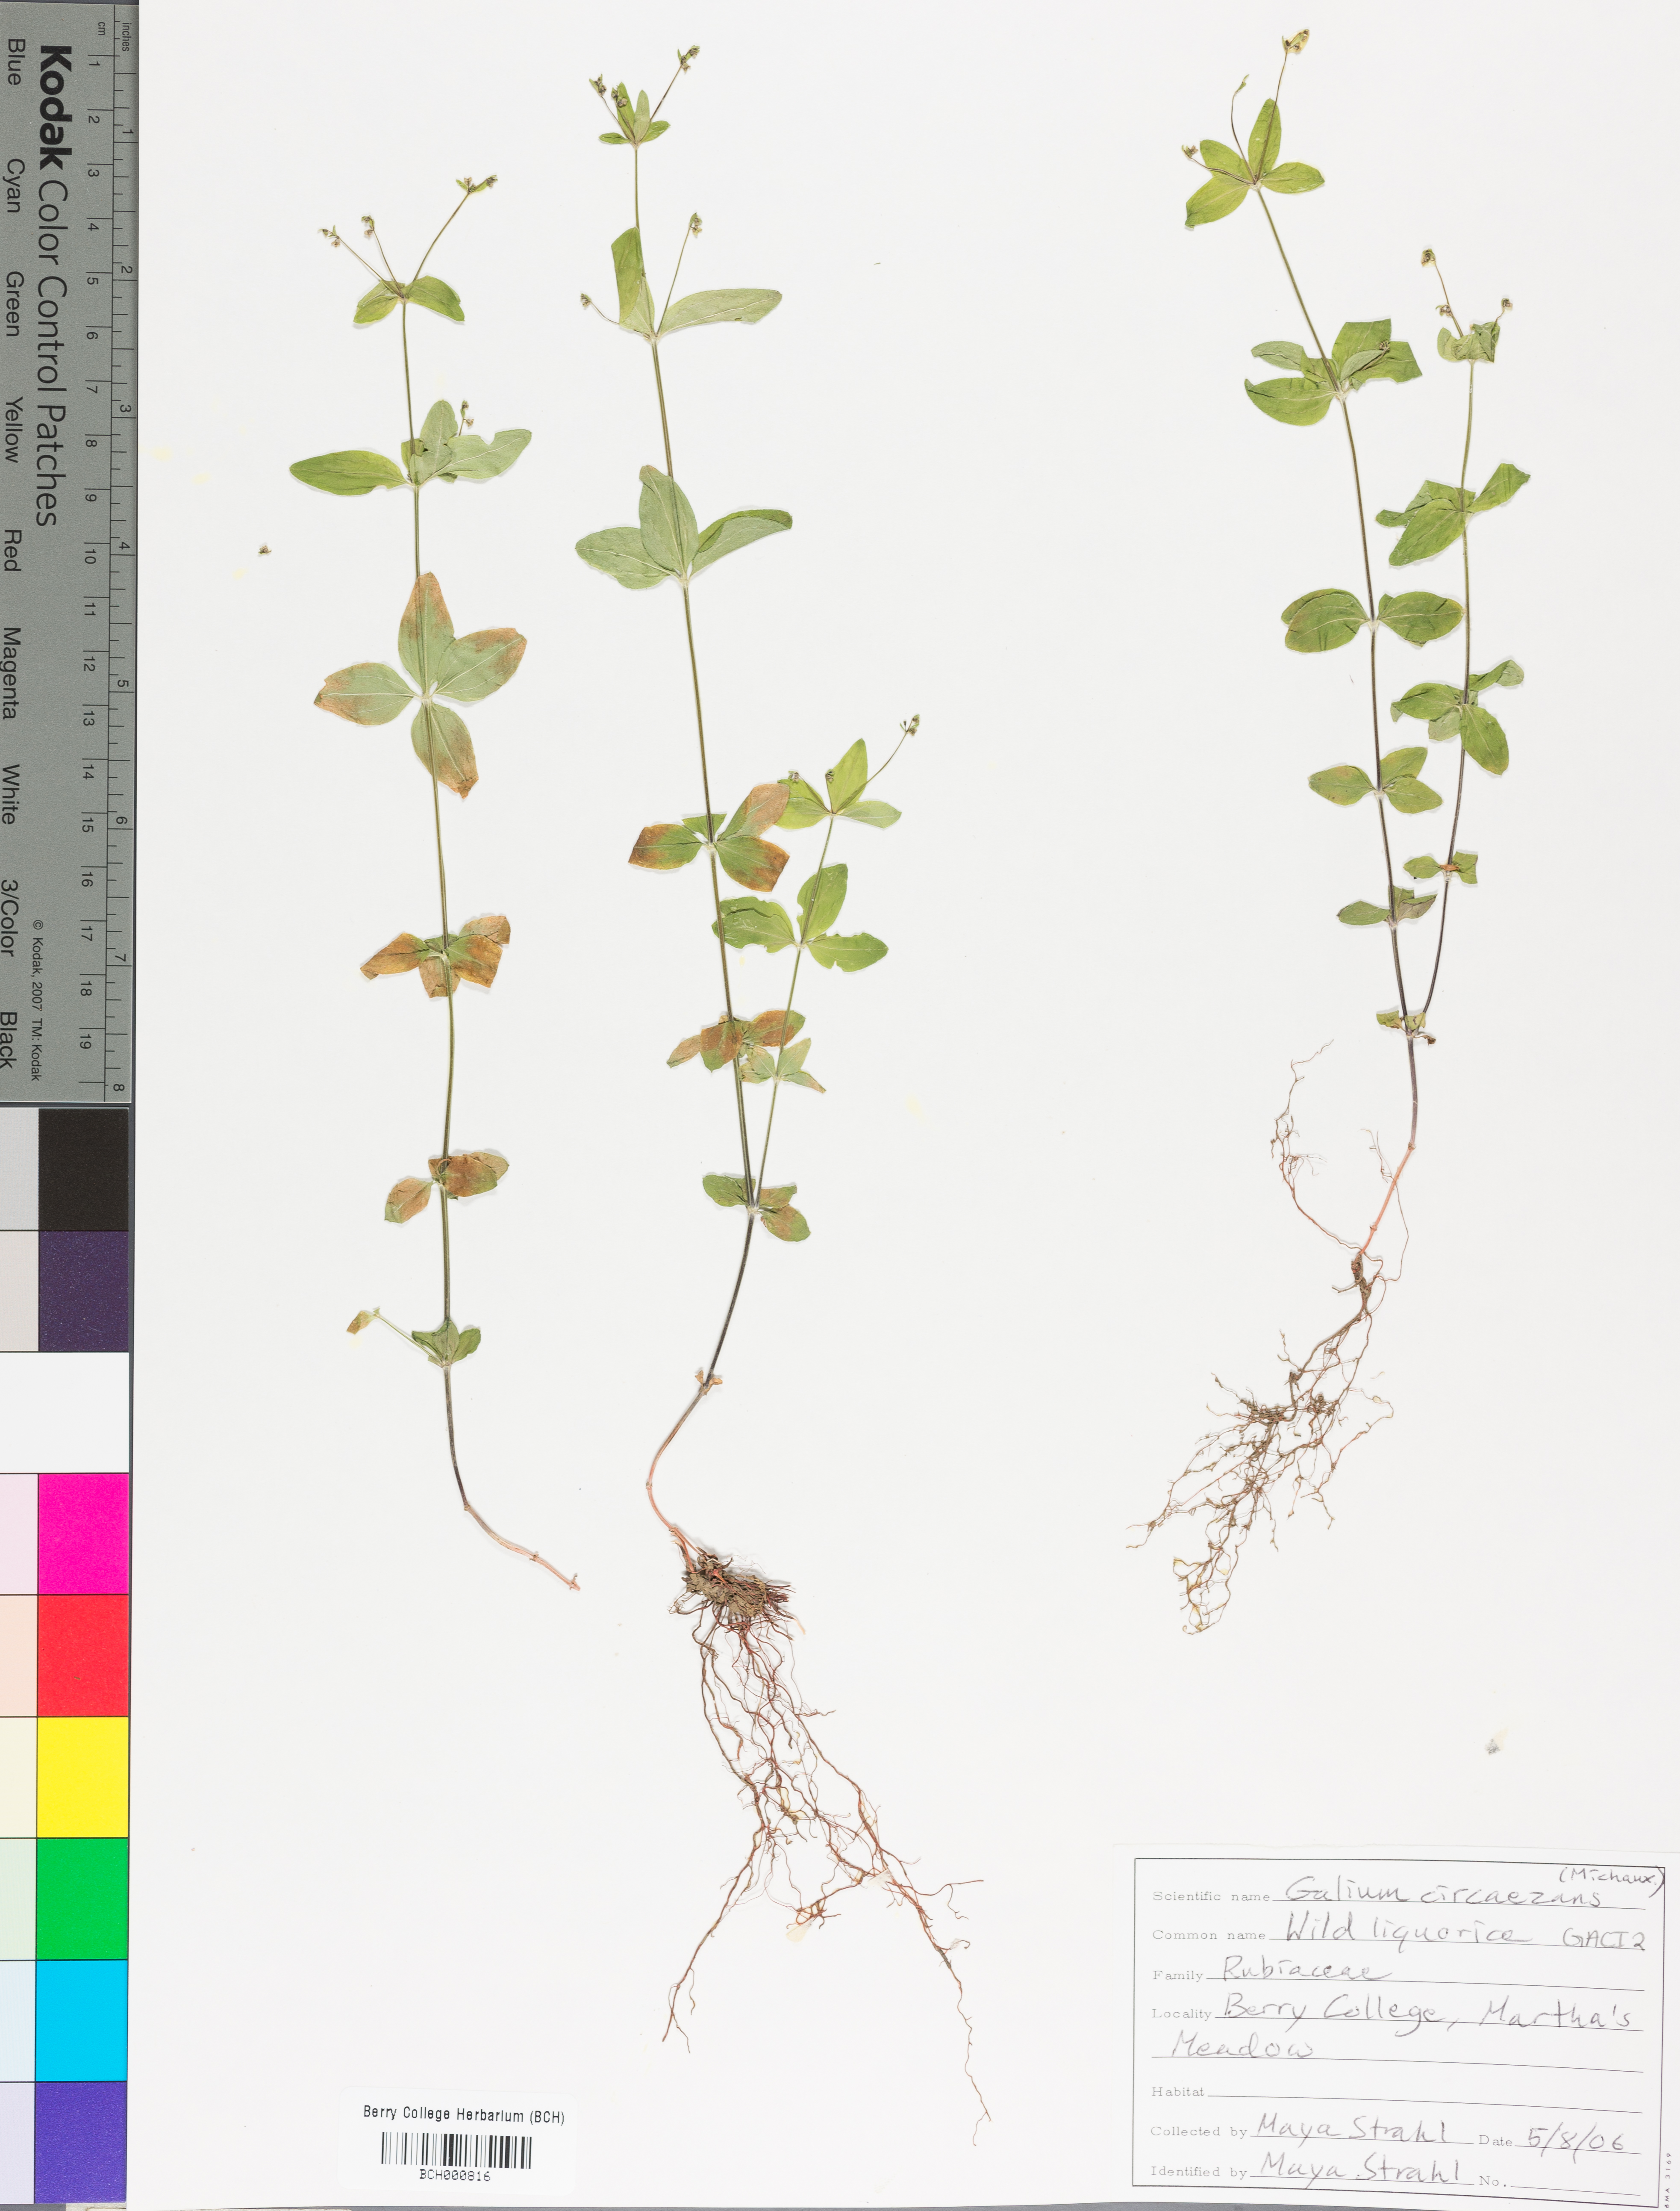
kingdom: Plantae
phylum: Tracheophyta
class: Magnoliopsida
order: Gentianales
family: Rubiaceae
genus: Galium
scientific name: Galium circaezans
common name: Forest bedstraw
